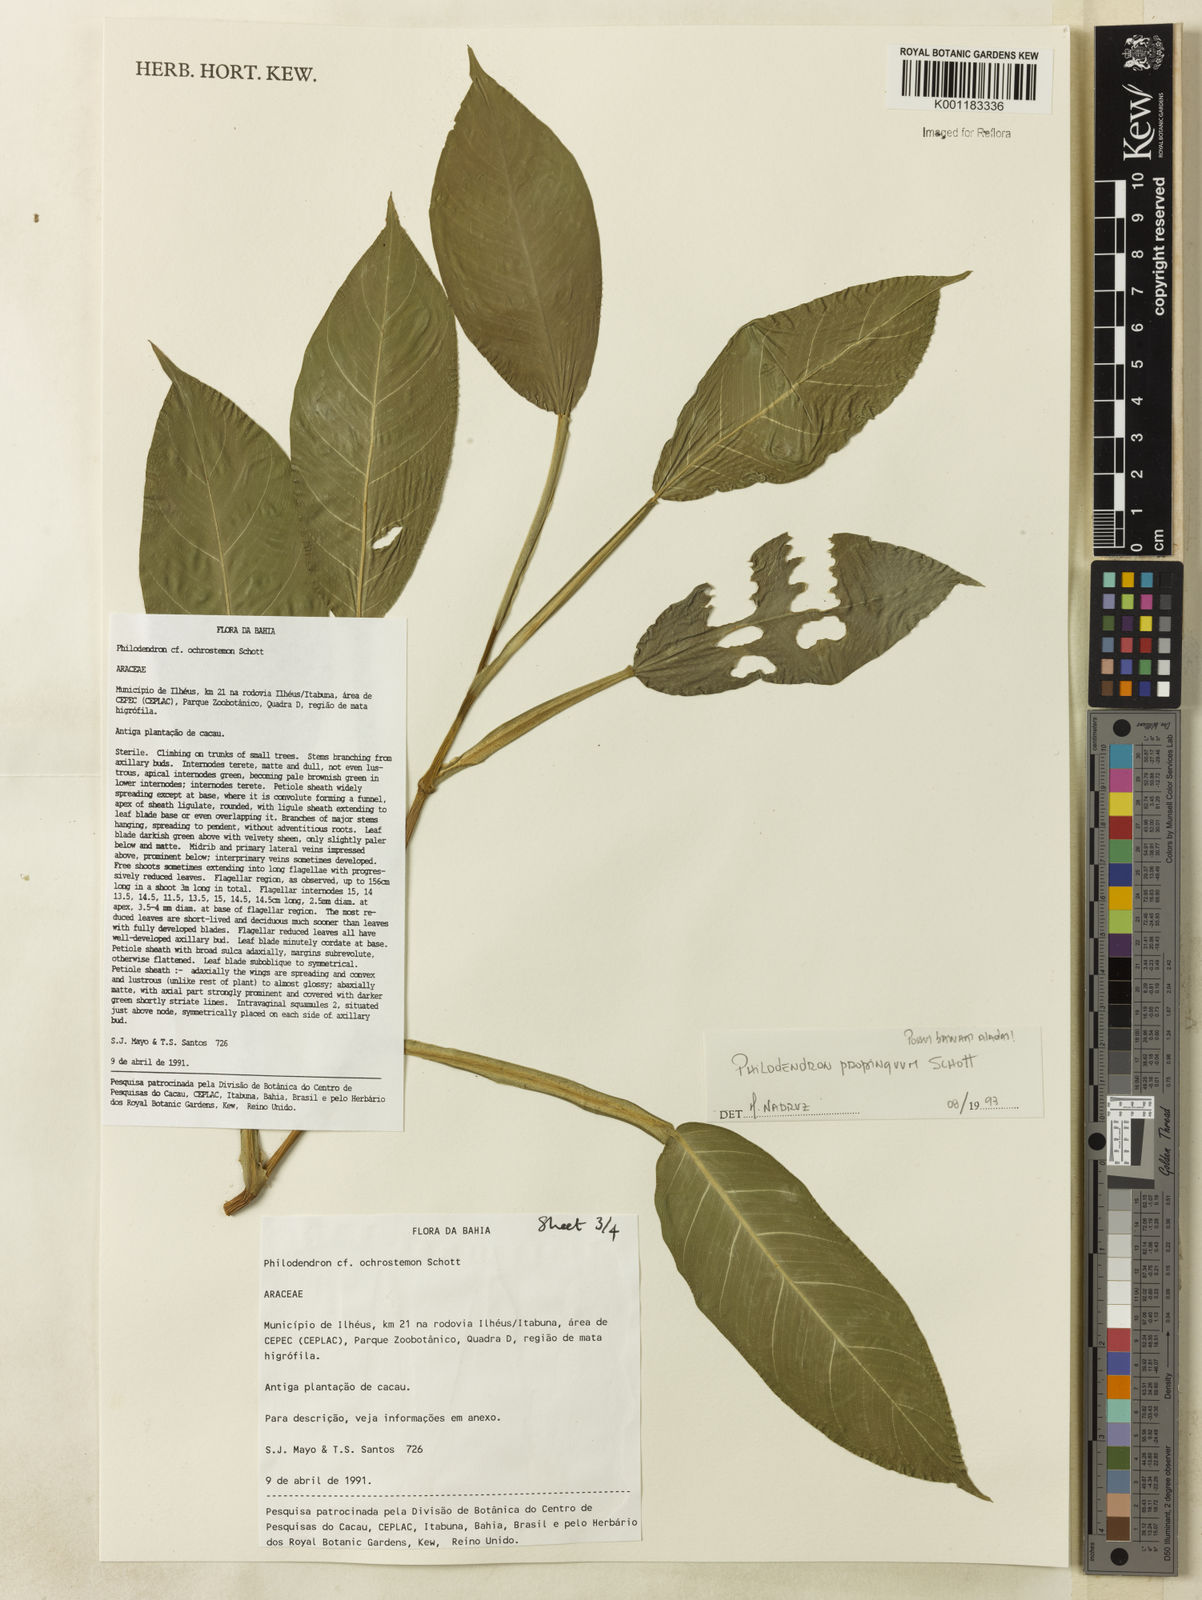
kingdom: Plantae
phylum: Tracheophyta
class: Liliopsida
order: Alismatales
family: Araceae
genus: Philodendron
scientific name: Philodendron propinquum
